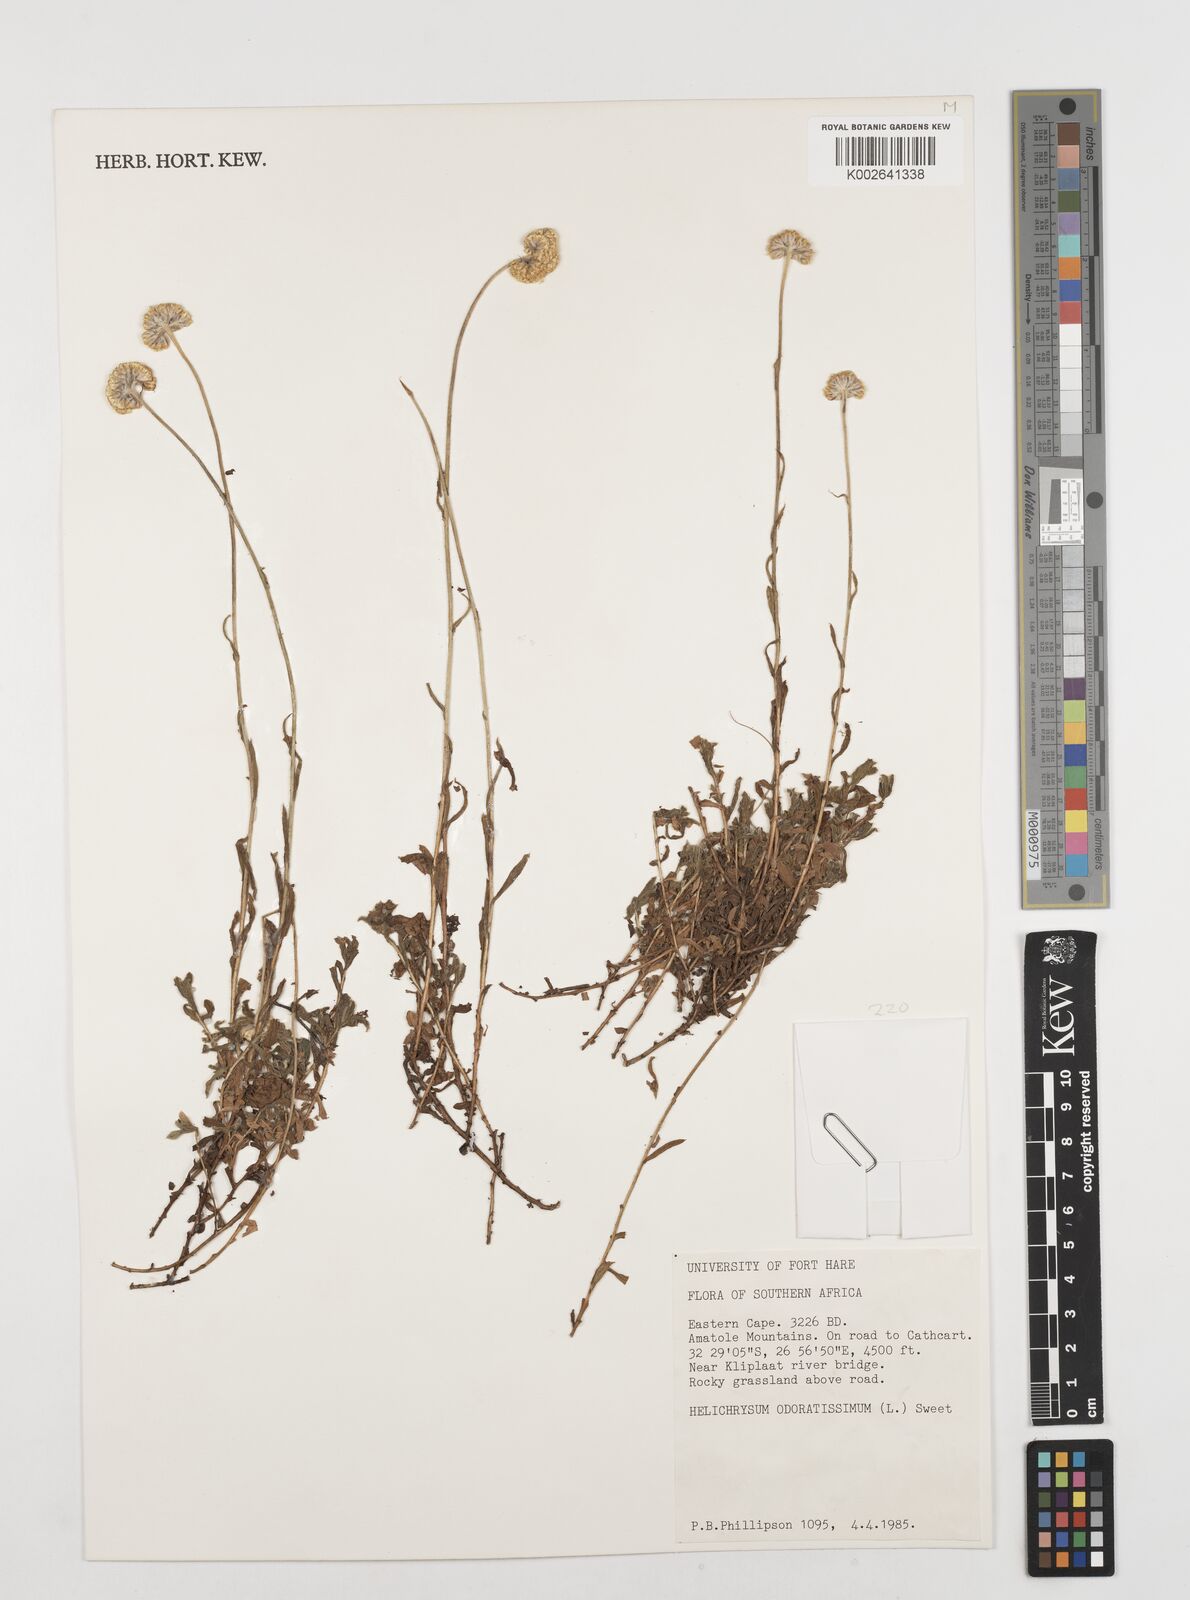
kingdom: Plantae
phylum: Tracheophyta
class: Magnoliopsida
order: Asterales
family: Asteraceae
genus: Helichrysum
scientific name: Helichrysum odoratissimum
